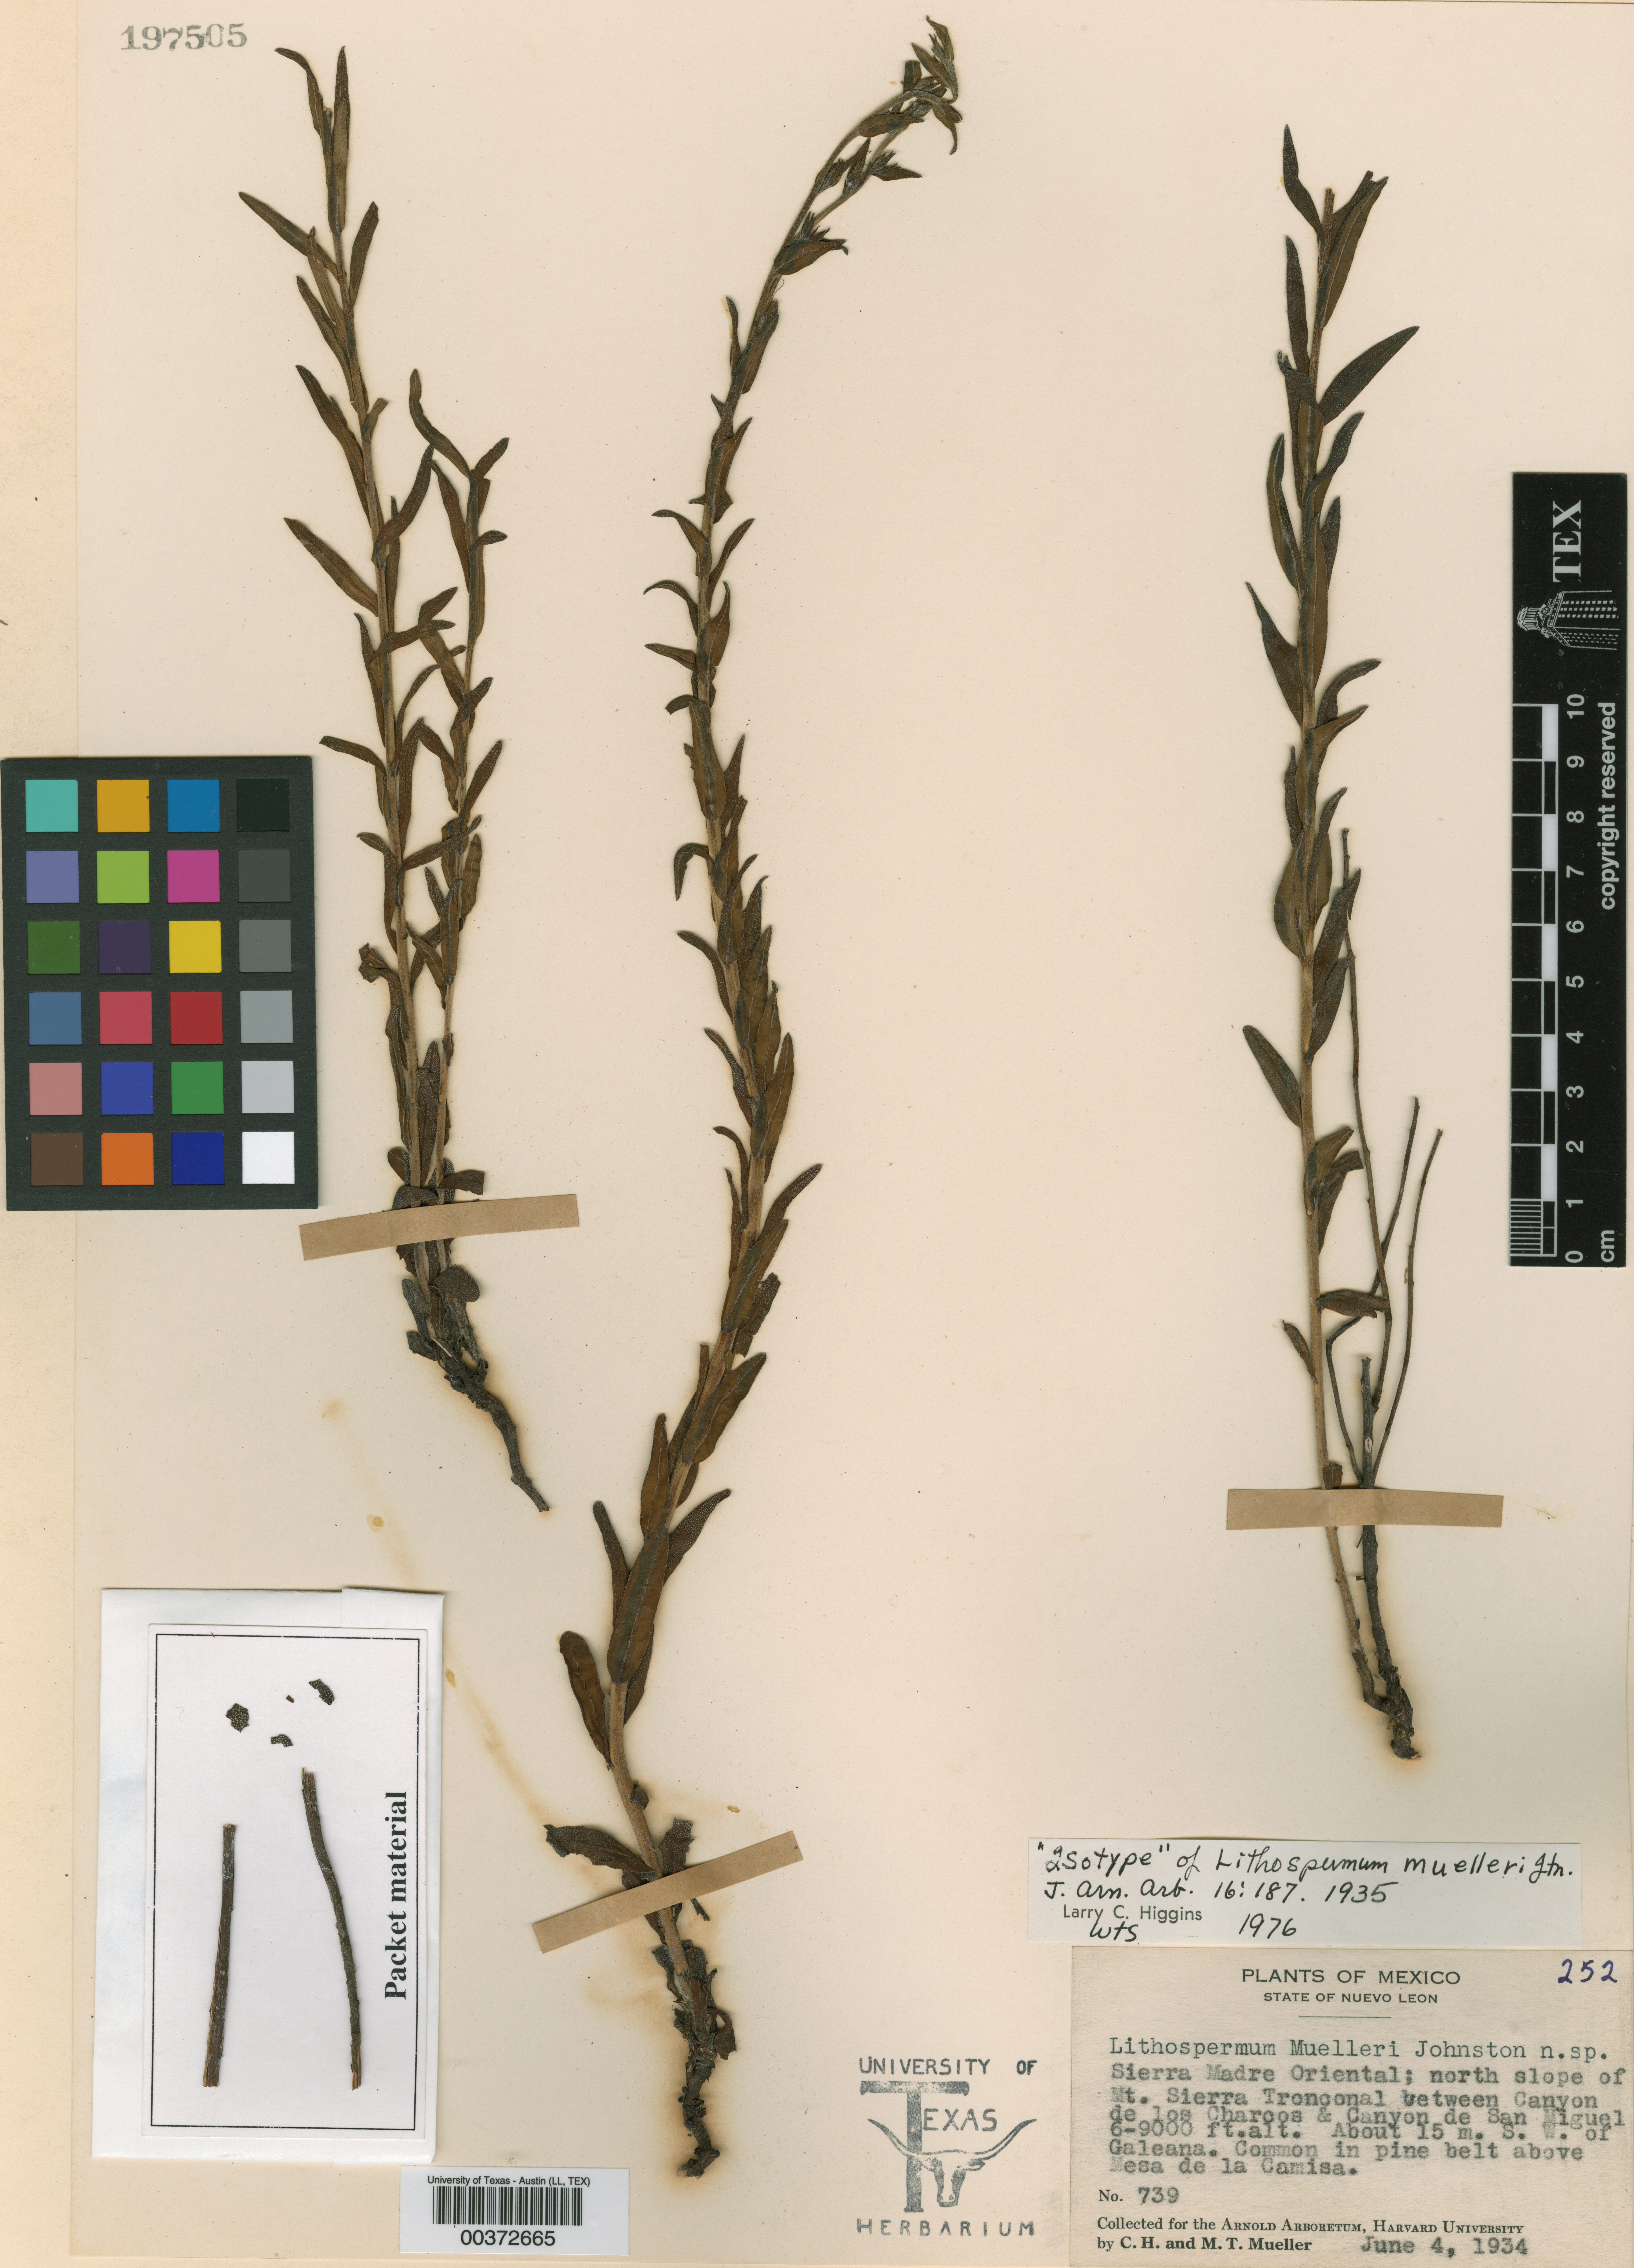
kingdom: Plantae
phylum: Tracheophyta
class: Magnoliopsida
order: Boraginales
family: Boraginaceae
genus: Lithospermum
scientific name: Lithospermum muelleri
